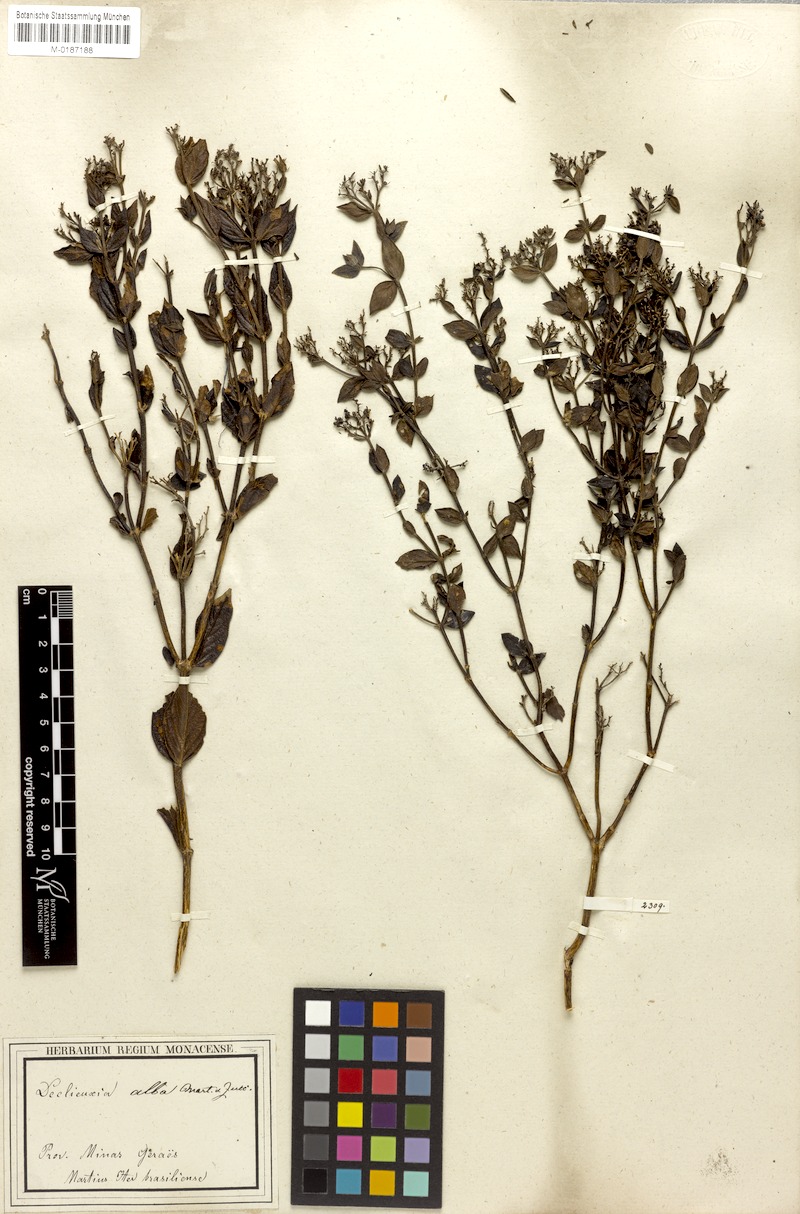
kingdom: Plantae
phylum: Tracheophyta
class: Magnoliopsida
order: Gentianales
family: Rubiaceae
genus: Declieuxia
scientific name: Declieuxia fruticosa
